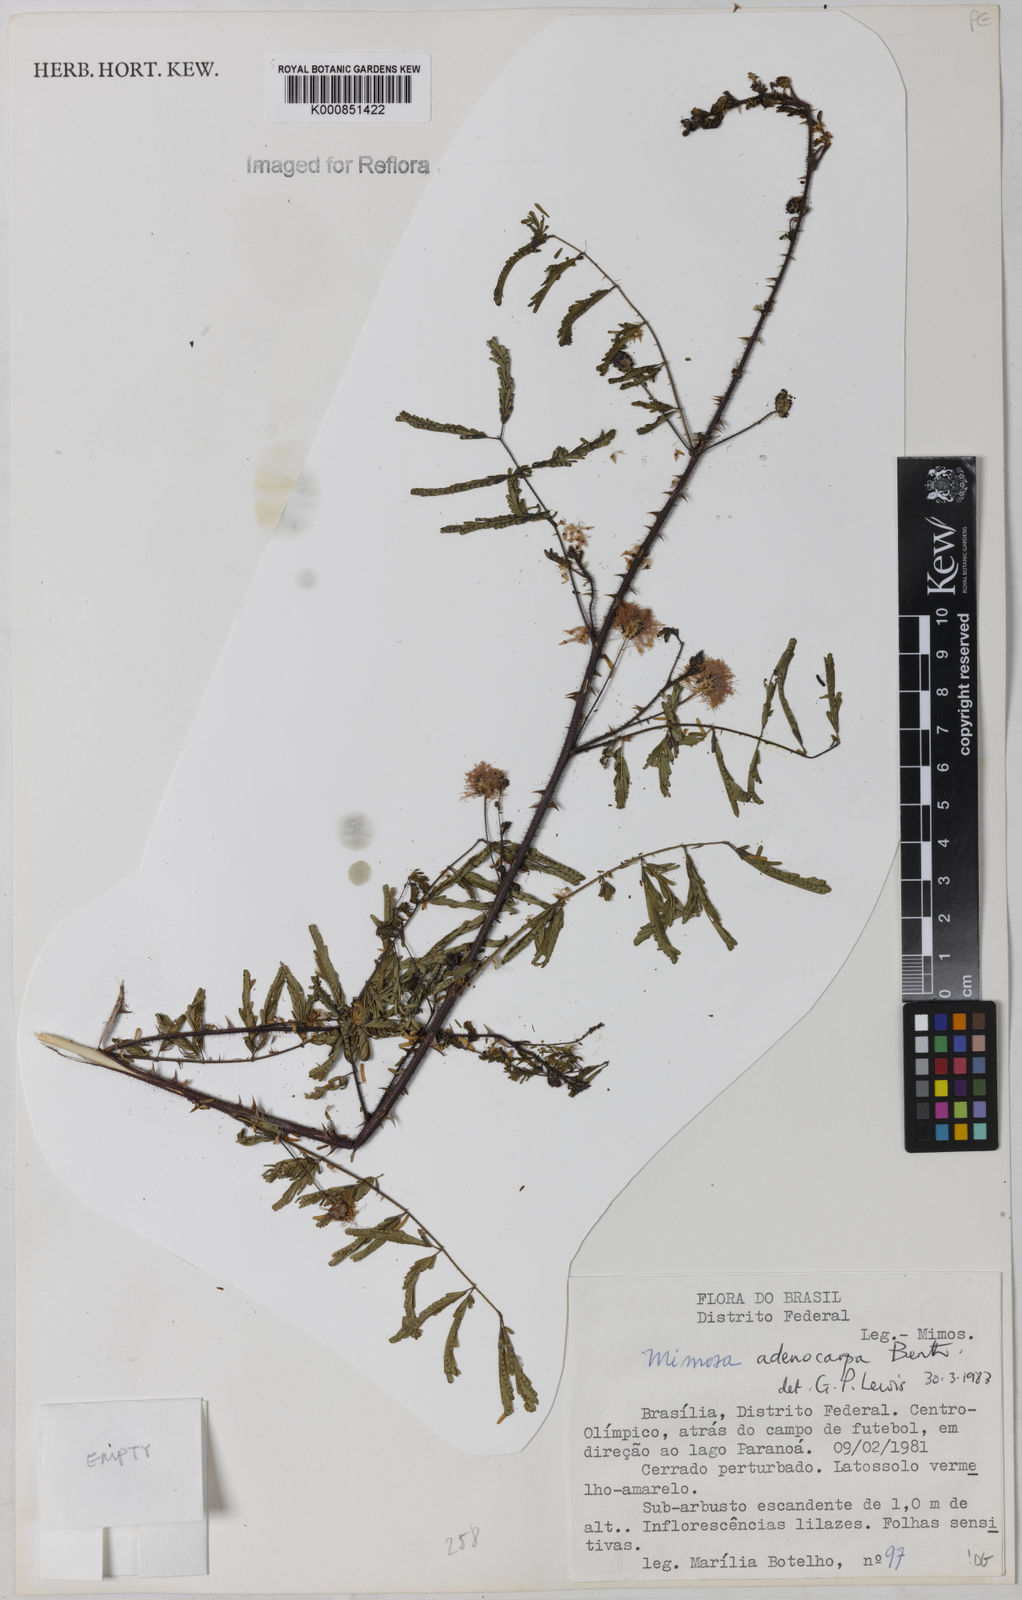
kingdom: Plantae
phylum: Tracheophyta
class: Magnoliopsida
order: Fabales
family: Fabaceae
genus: Mimosa
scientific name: Mimosa adenocarpa
